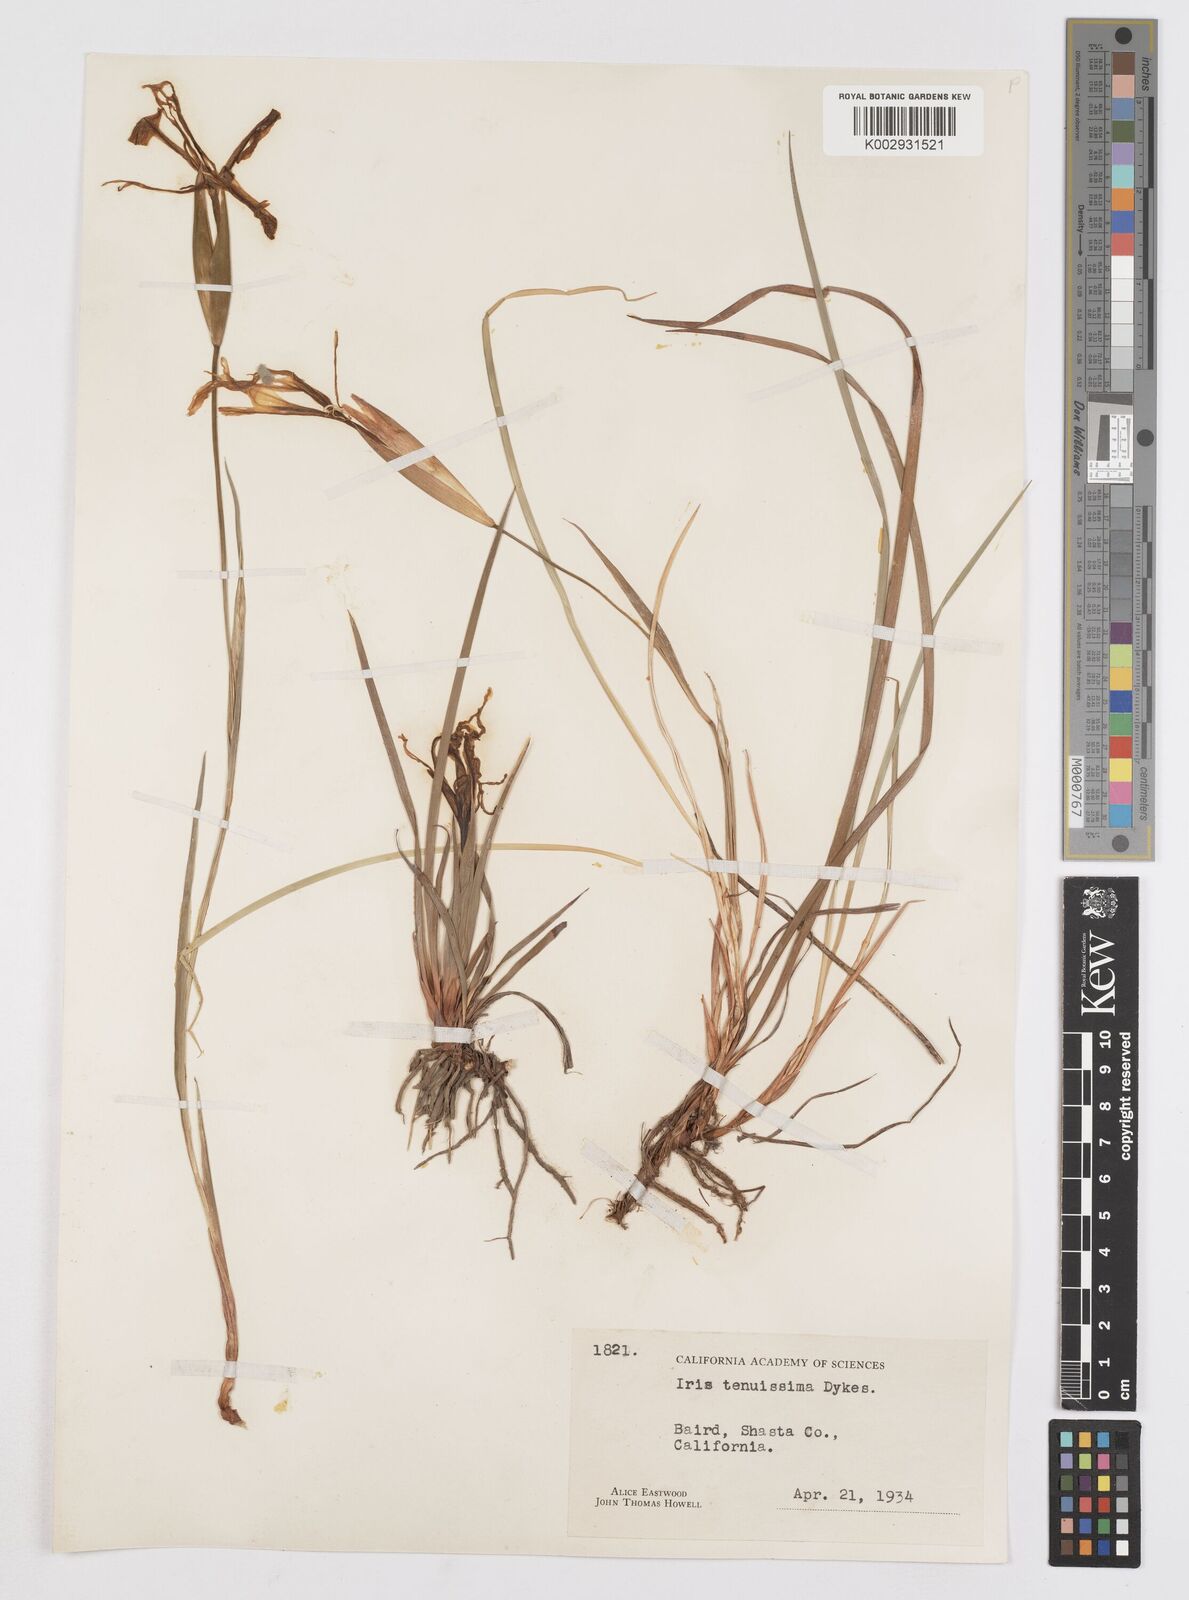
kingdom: Plantae
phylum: Tracheophyta
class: Liliopsida
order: Asparagales
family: Iridaceae
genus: Iris
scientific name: Iris tenuissima
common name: Long-tube iris
